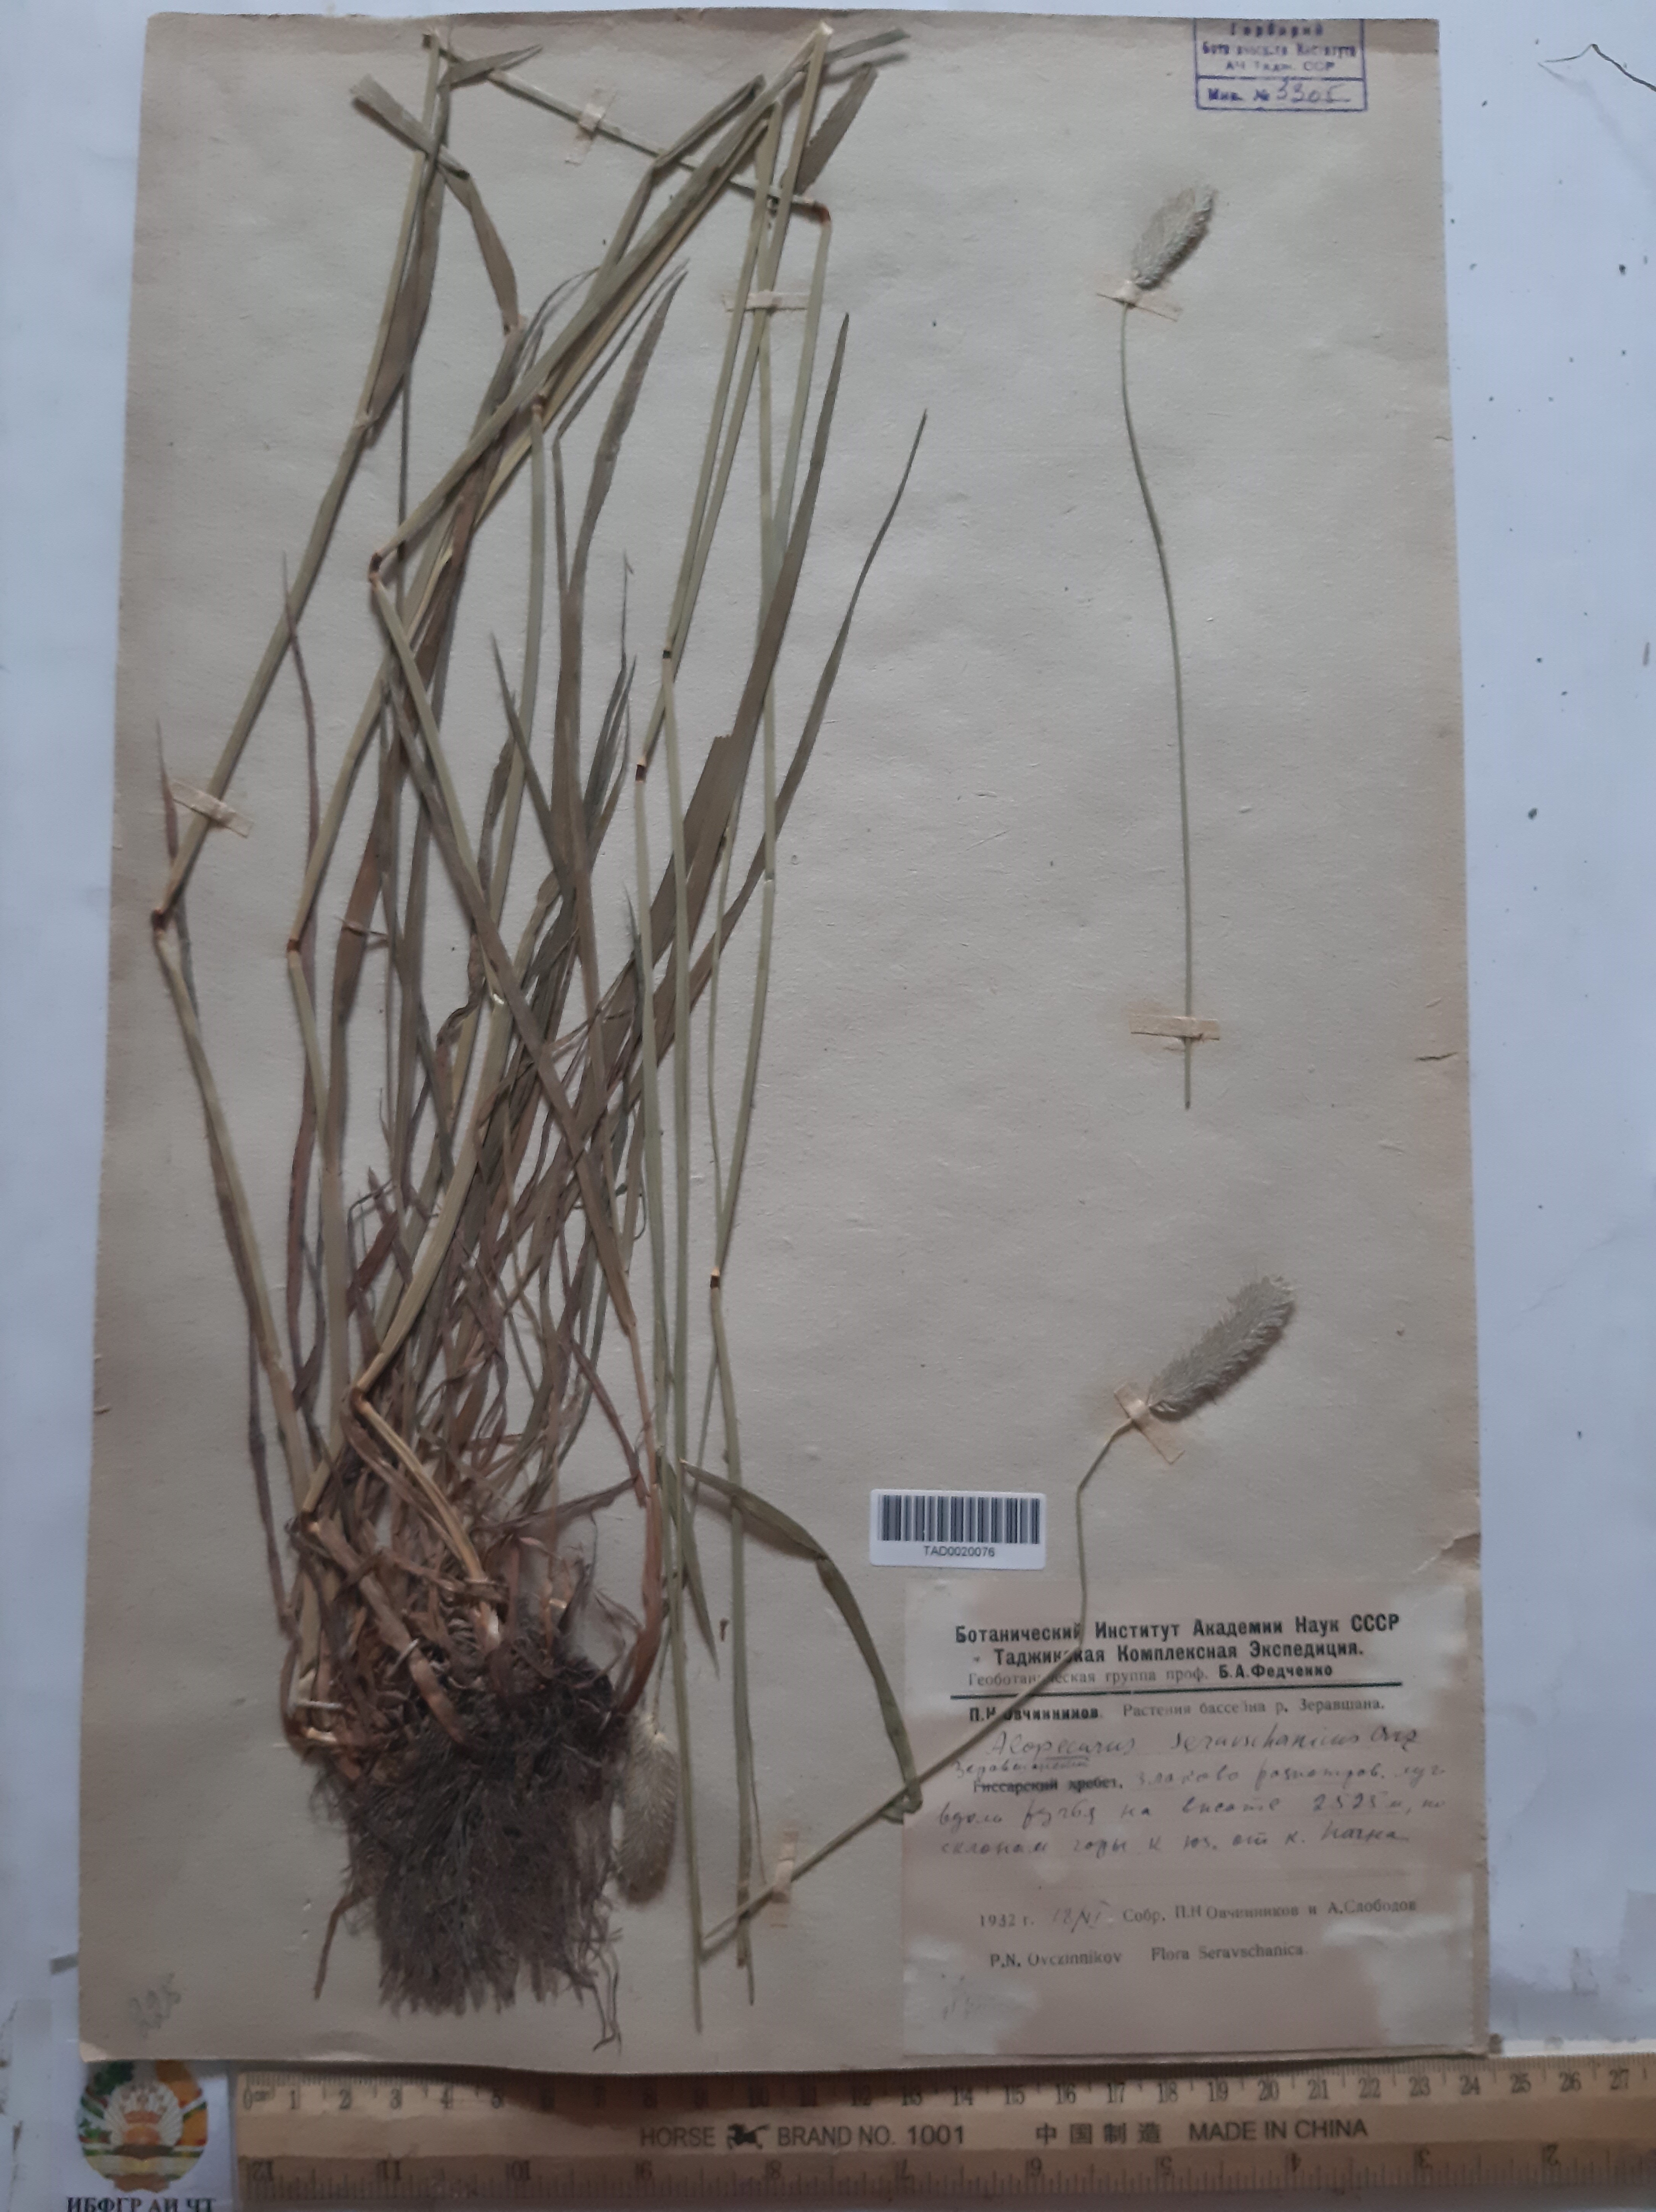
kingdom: Plantae
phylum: Tracheophyta
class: Liliopsida
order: Poales
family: Poaceae
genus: Alopecurus
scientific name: Alopecurus pratensis
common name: Meadow foxtail
